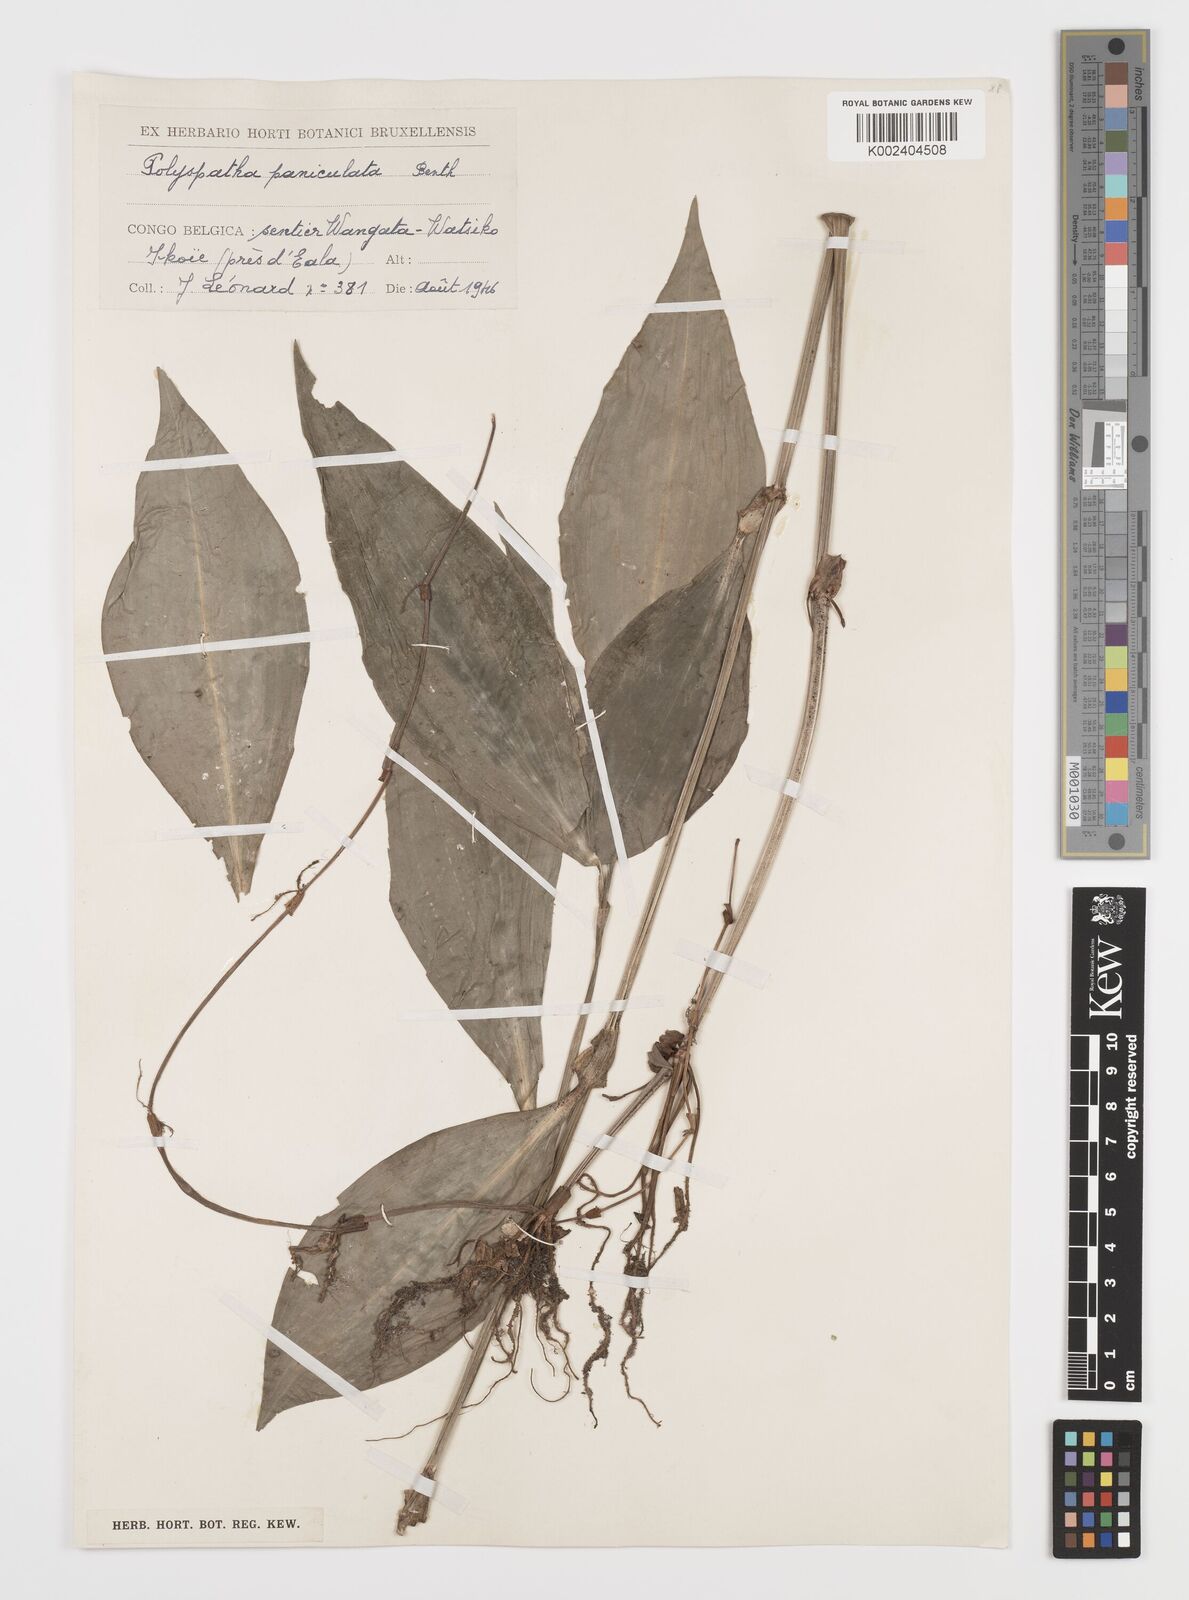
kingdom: Plantae
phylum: Tracheophyta
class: Liliopsida
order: Commelinales
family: Commelinaceae
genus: Polyspatha
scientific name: Polyspatha paniculata
